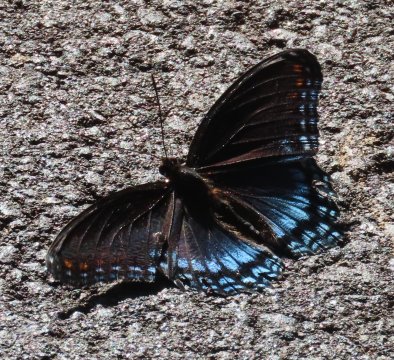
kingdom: Animalia
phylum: Arthropoda
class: Insecta
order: Lepidoptera
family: Nymphalidae
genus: Limenitis
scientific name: Limenitis arthemis
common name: Red-spotted Admiral
